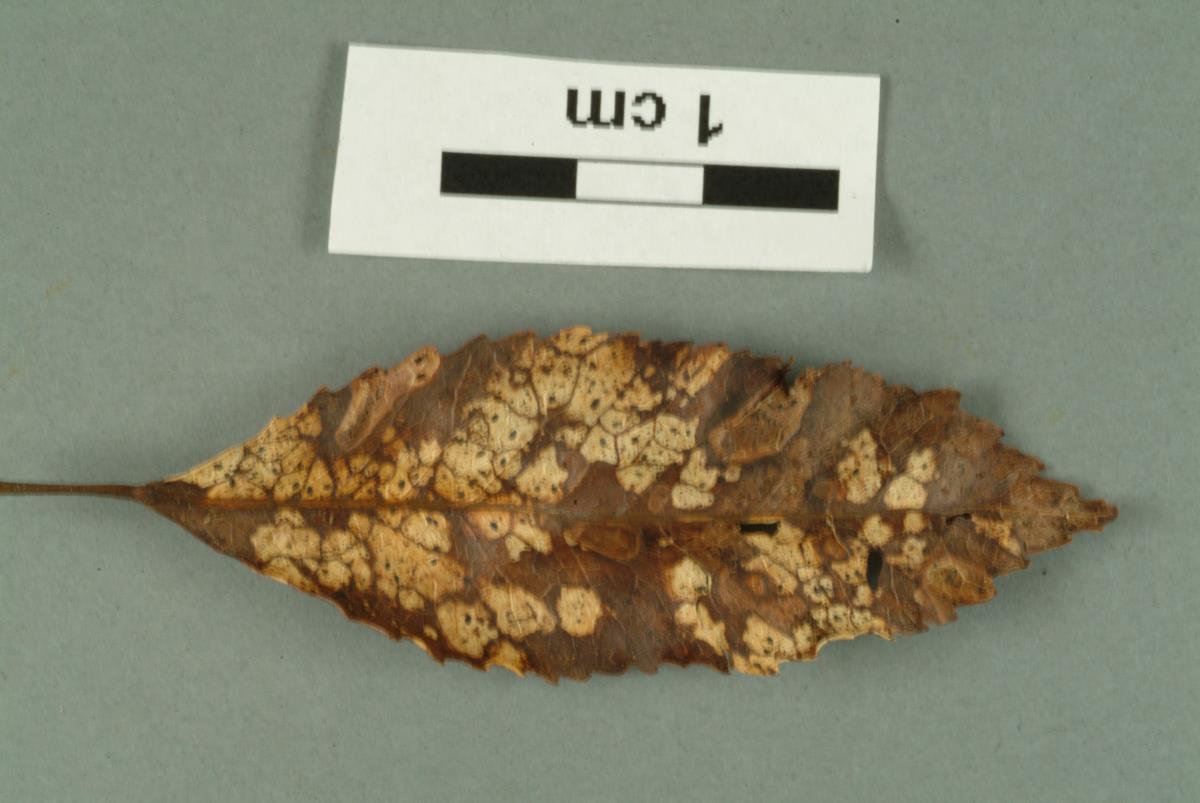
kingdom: Fungi
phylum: Ascomycota
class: Orbiliomycetes
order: Orbiliales
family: Orbiliaceae
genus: Helicoon
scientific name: Helicoon
